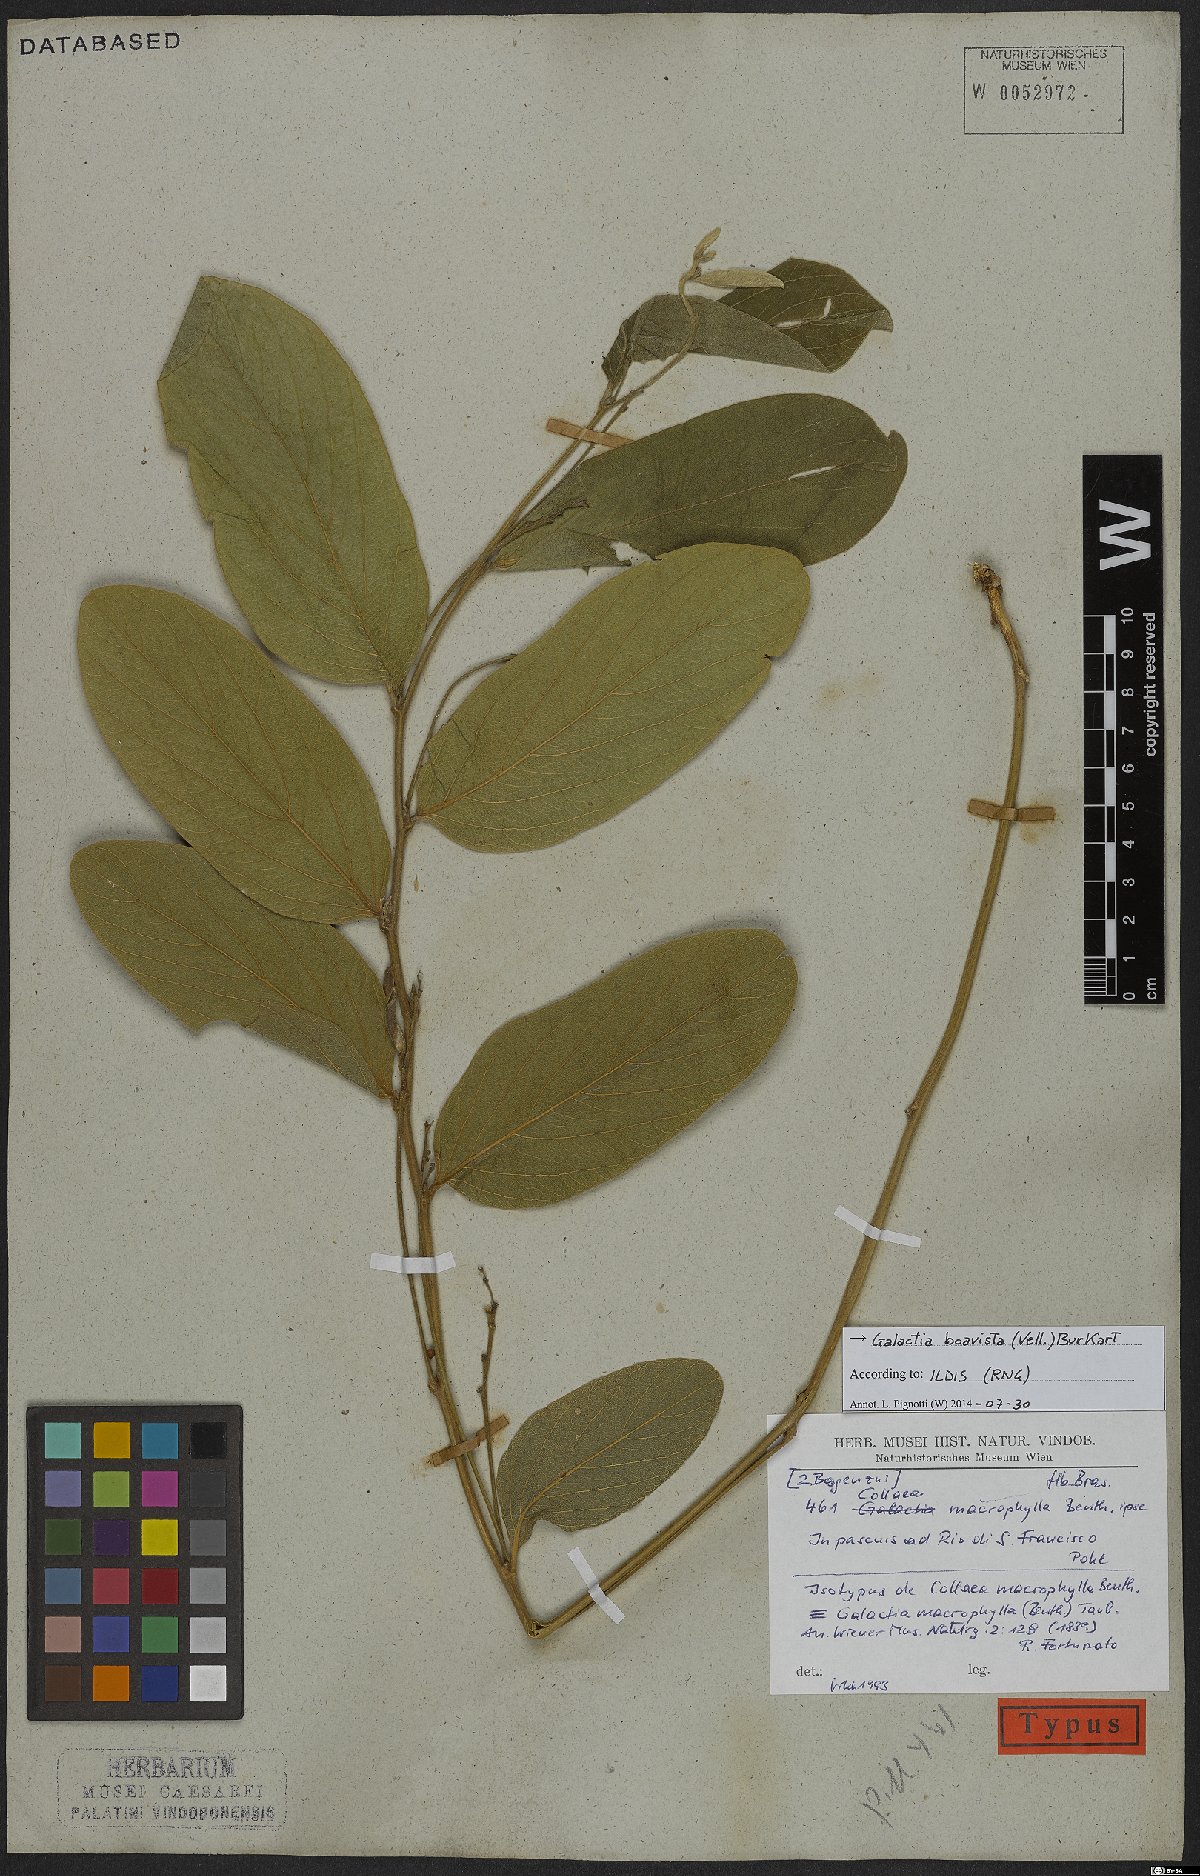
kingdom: Plantae
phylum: Tracheophyta
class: Magnoliopsida
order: Fabales
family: Fabaceae
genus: Cerradicola
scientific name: Cerradicola boavista
